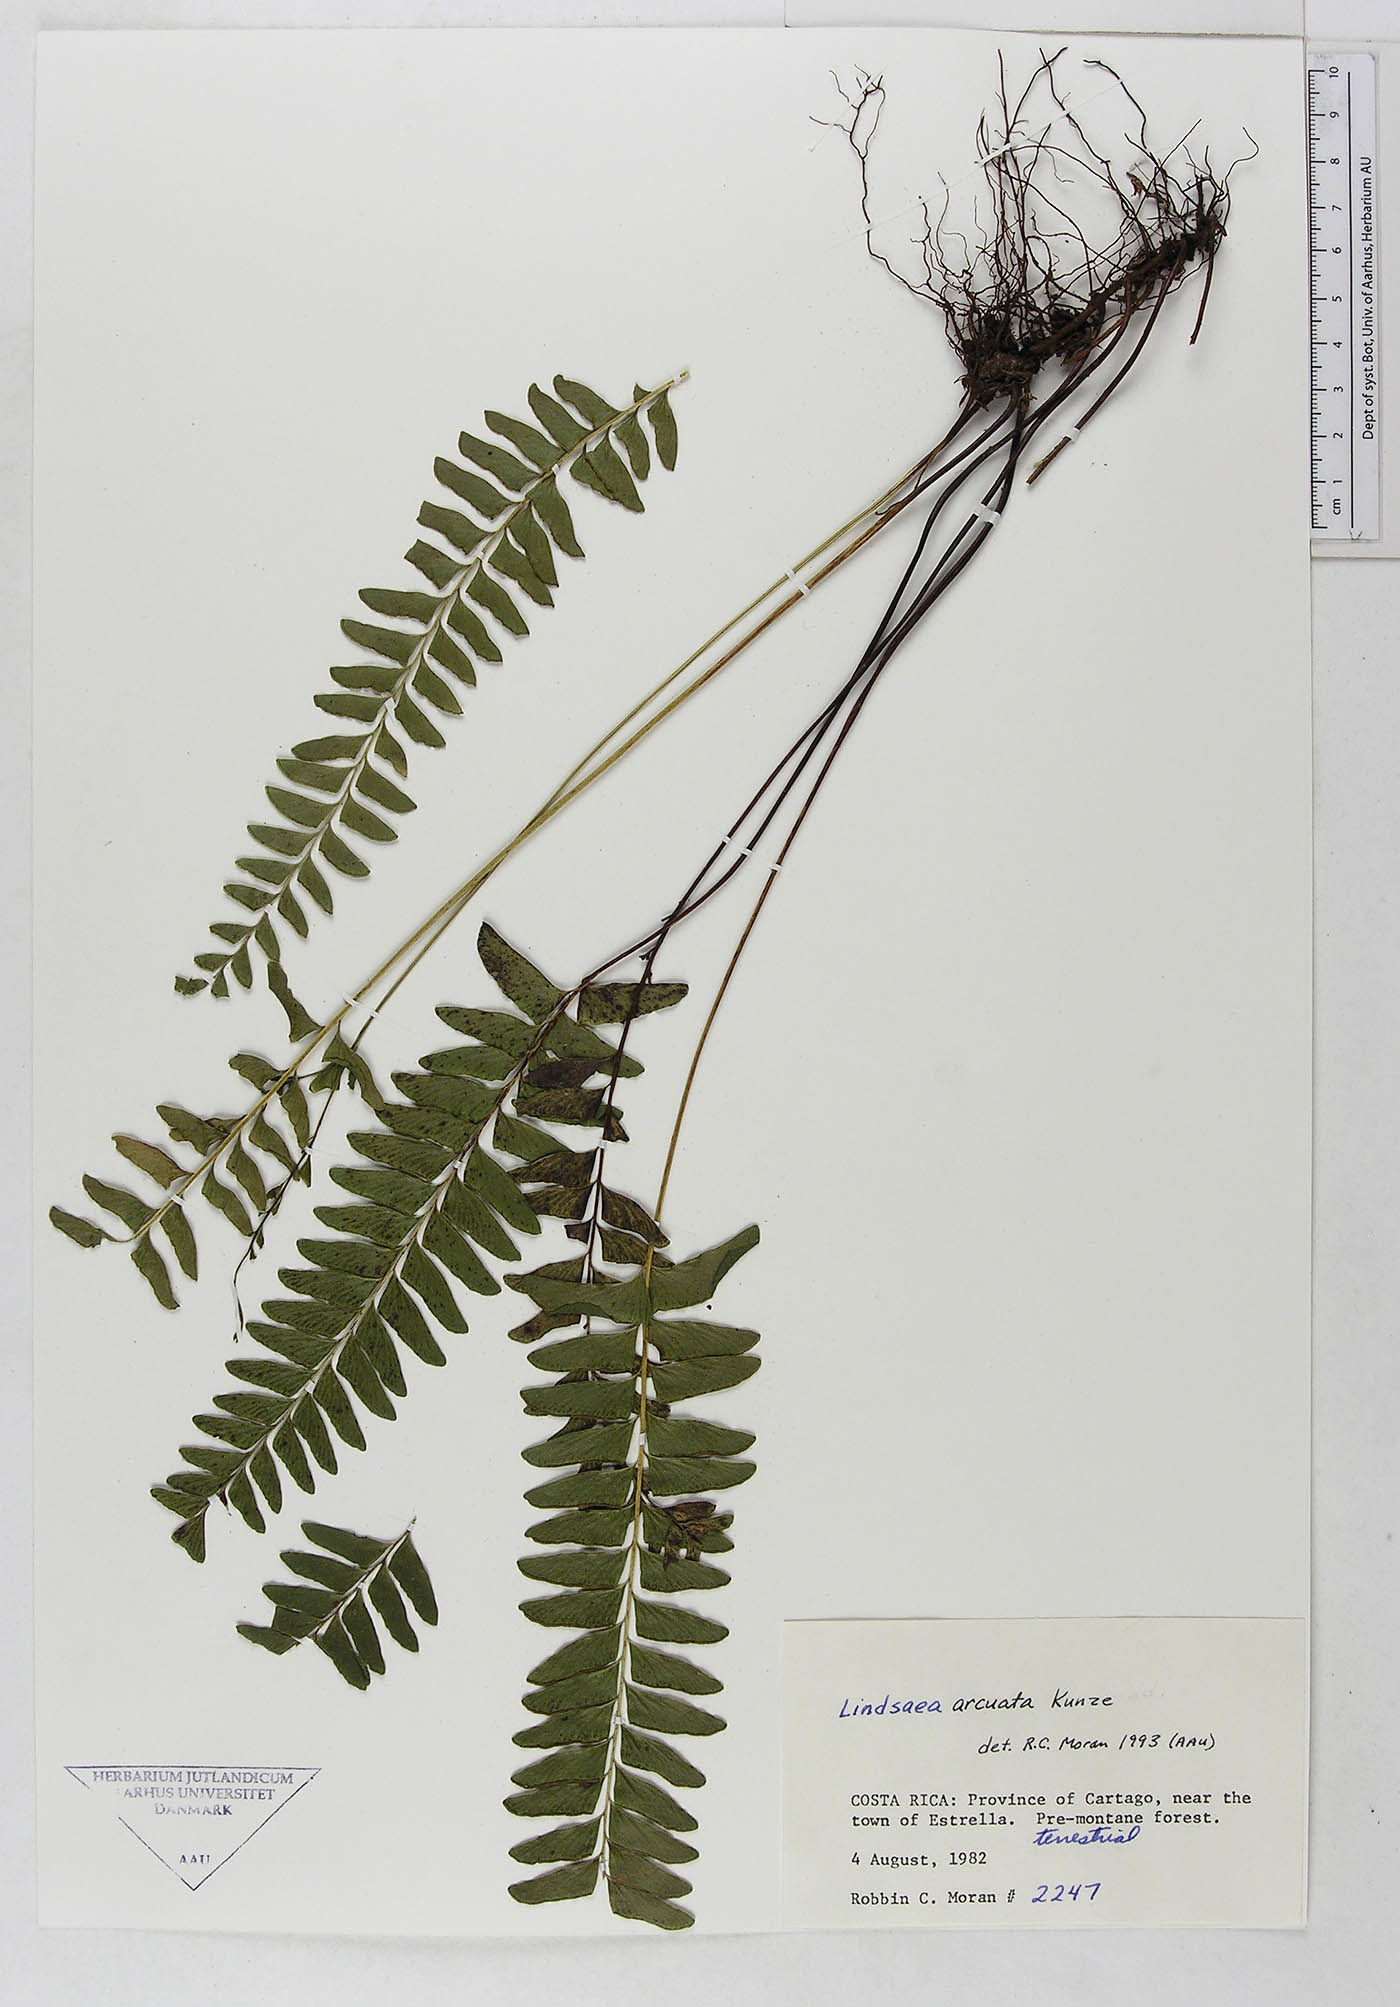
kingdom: Plantae
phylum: Tracheophyta
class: Polypodiopsida
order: Polypodiales
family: Lindsaeaceae
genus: Lindsaea
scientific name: Lindsaea arcuata
